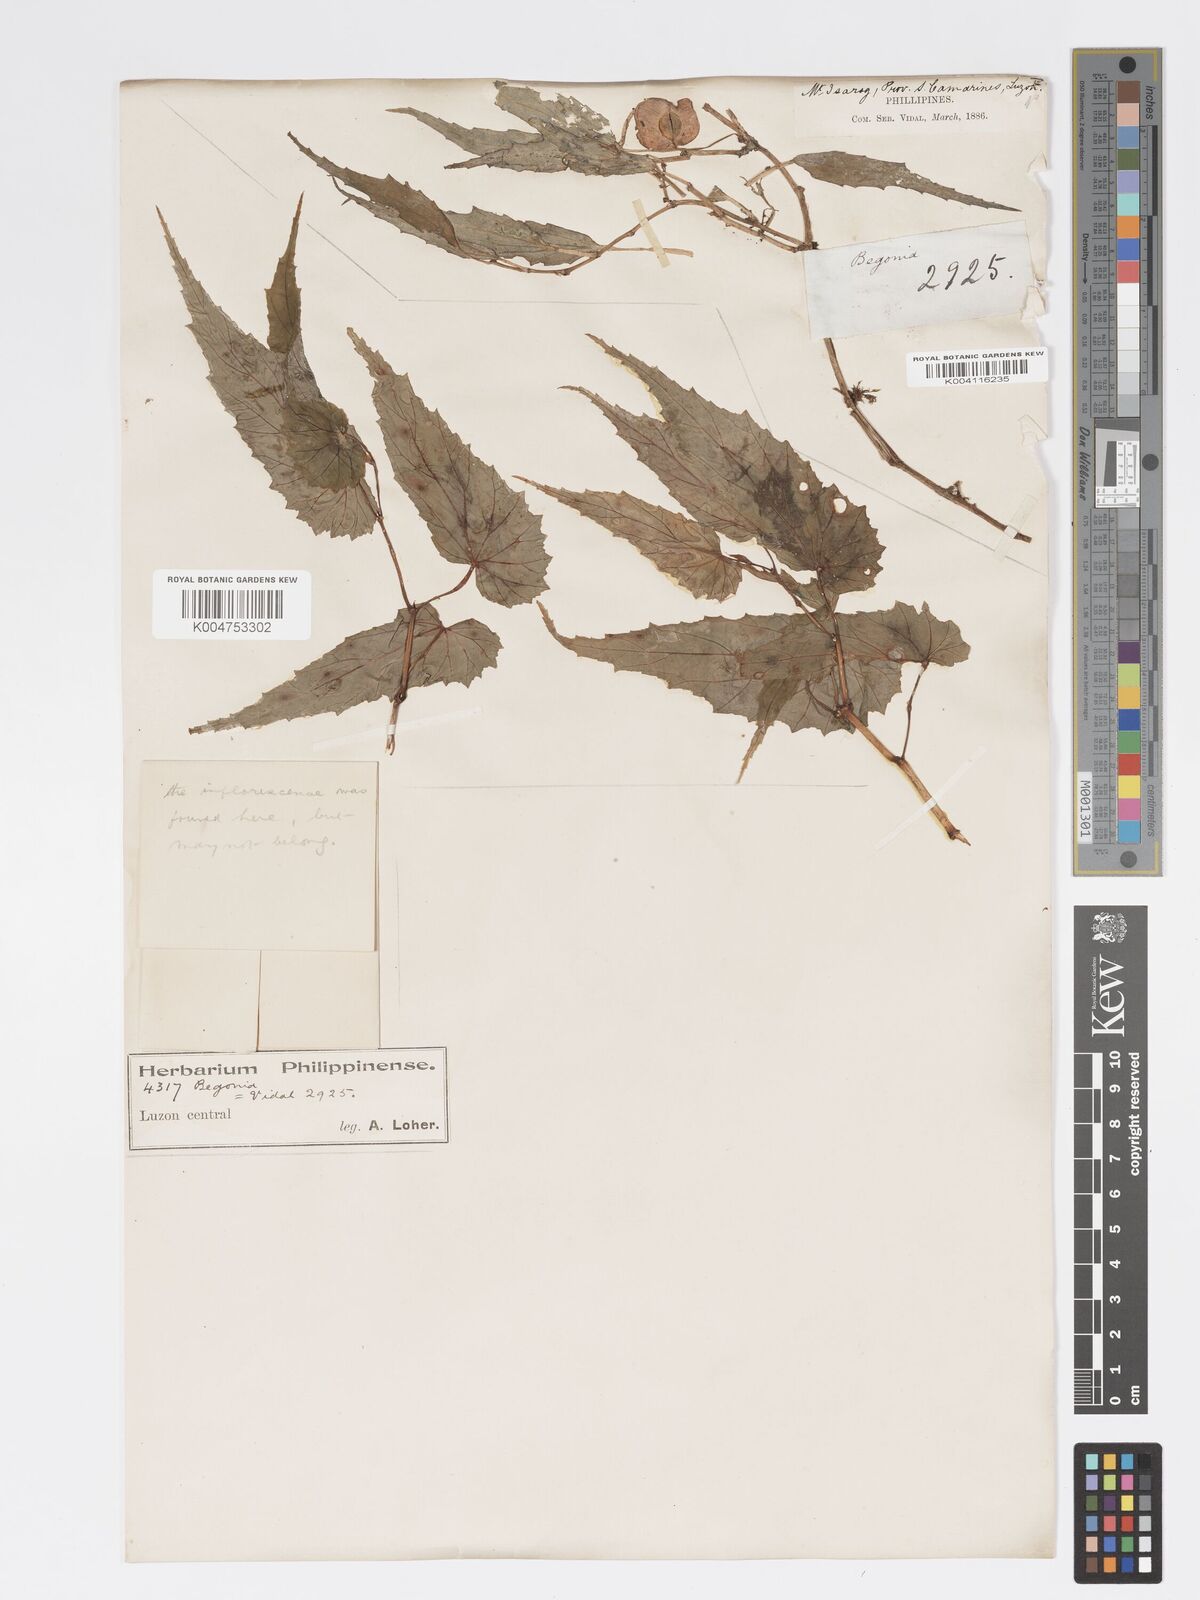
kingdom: Plantae
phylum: Tracheophyta
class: Magnoliopsida
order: Cucurbitales
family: Begoniaceae
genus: Begonia
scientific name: Begonia cumingiana
